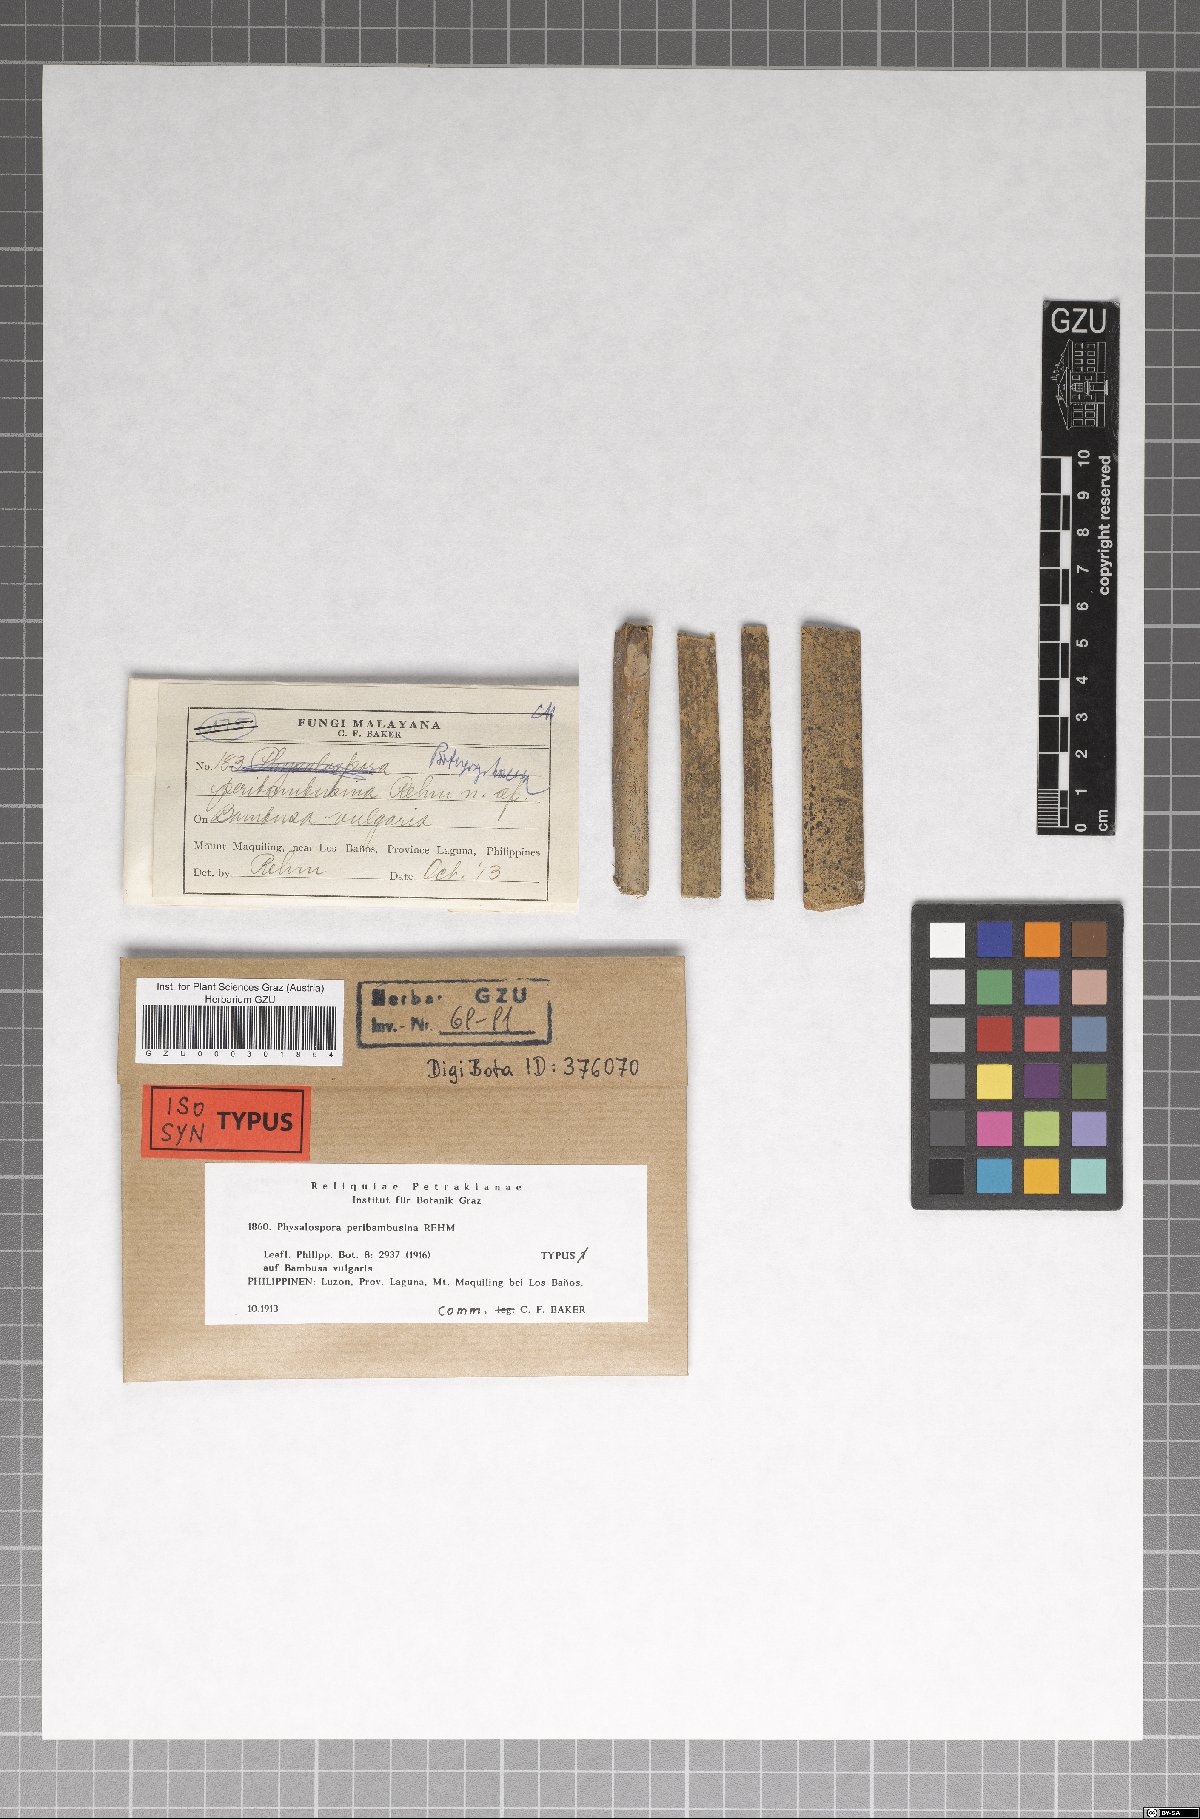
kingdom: Fungi
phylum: Ascomycota
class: Sordariomycetes
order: Xylariales
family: Hyponectriaceae
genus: Physalospora
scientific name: Physalospora peribambusina
